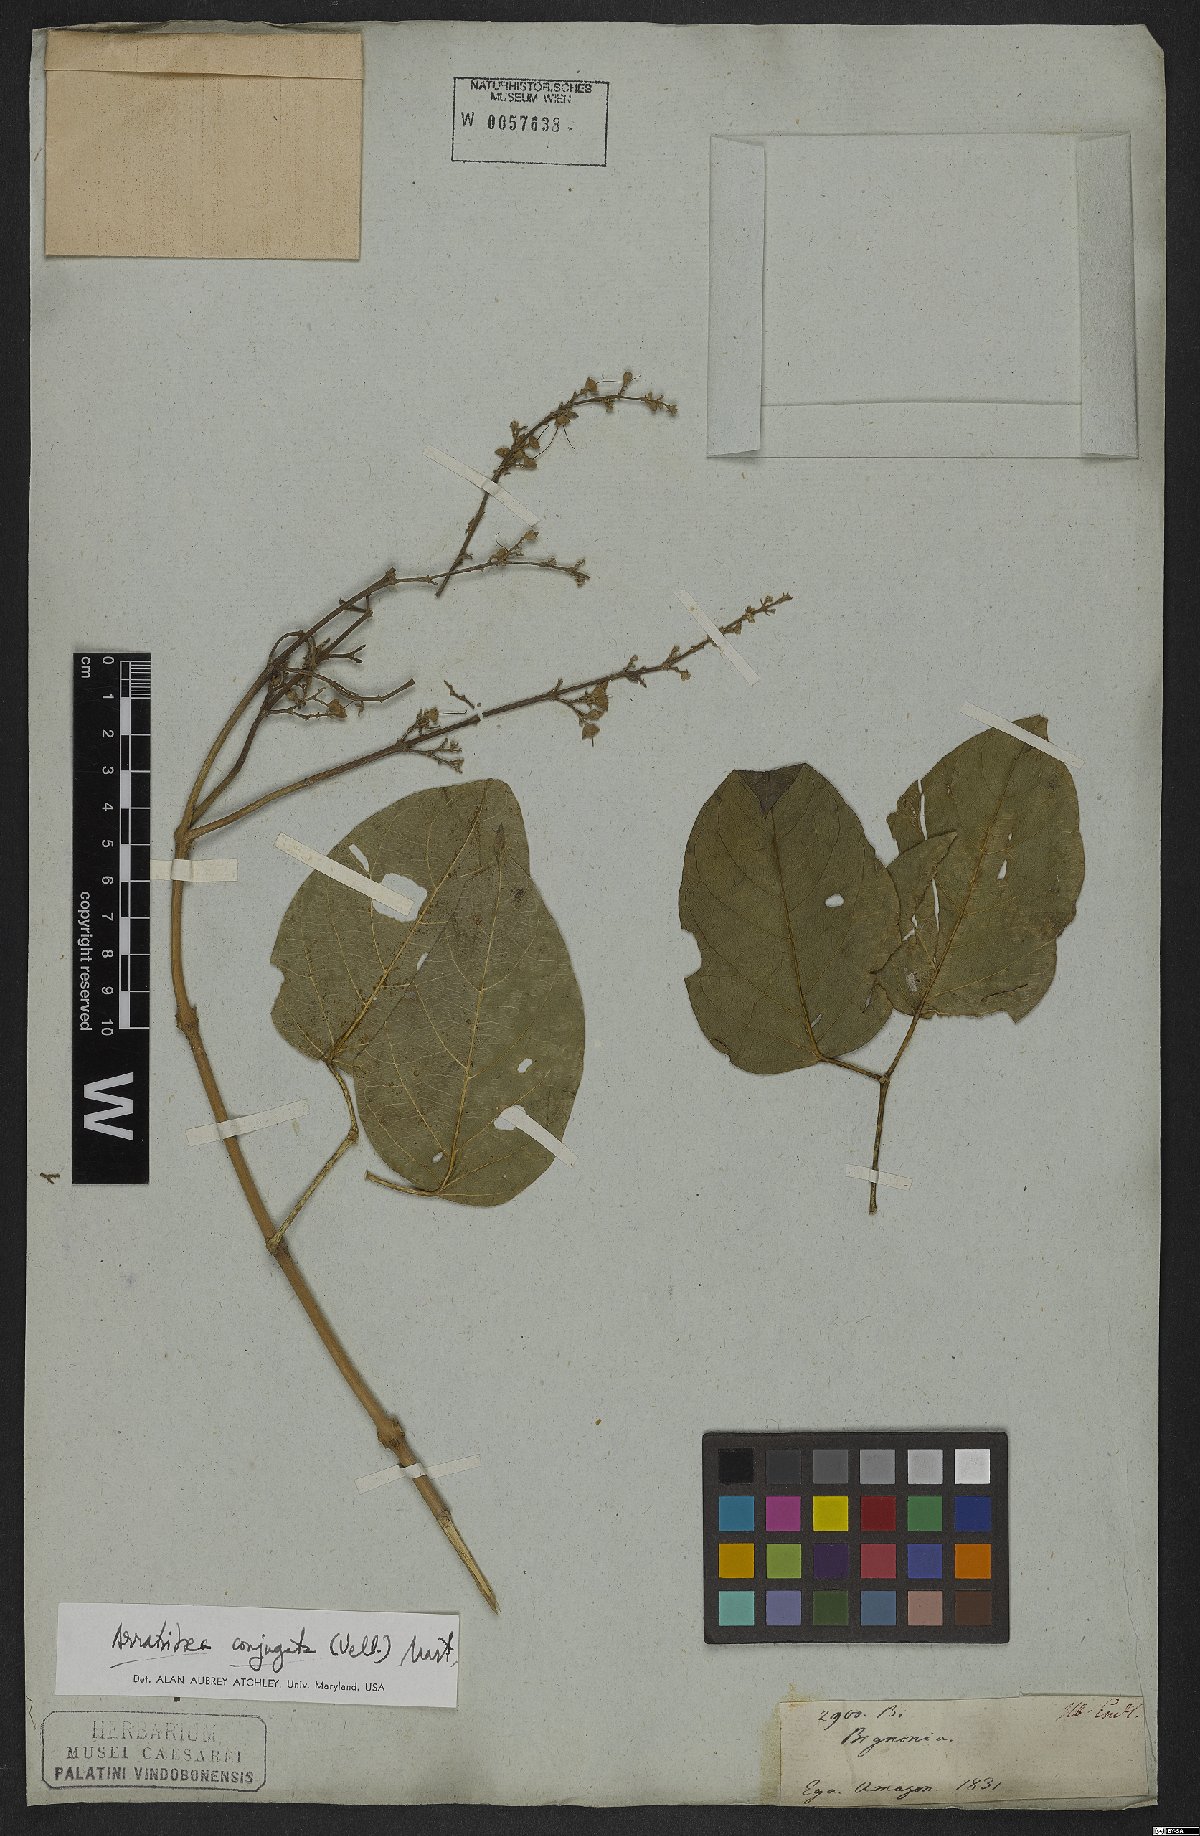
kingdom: Plantae
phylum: Tracheophyta
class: Magnoliopsida
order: Lamiales
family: Bignoniaceae
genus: Fridericia
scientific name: Fridericia conjugata
